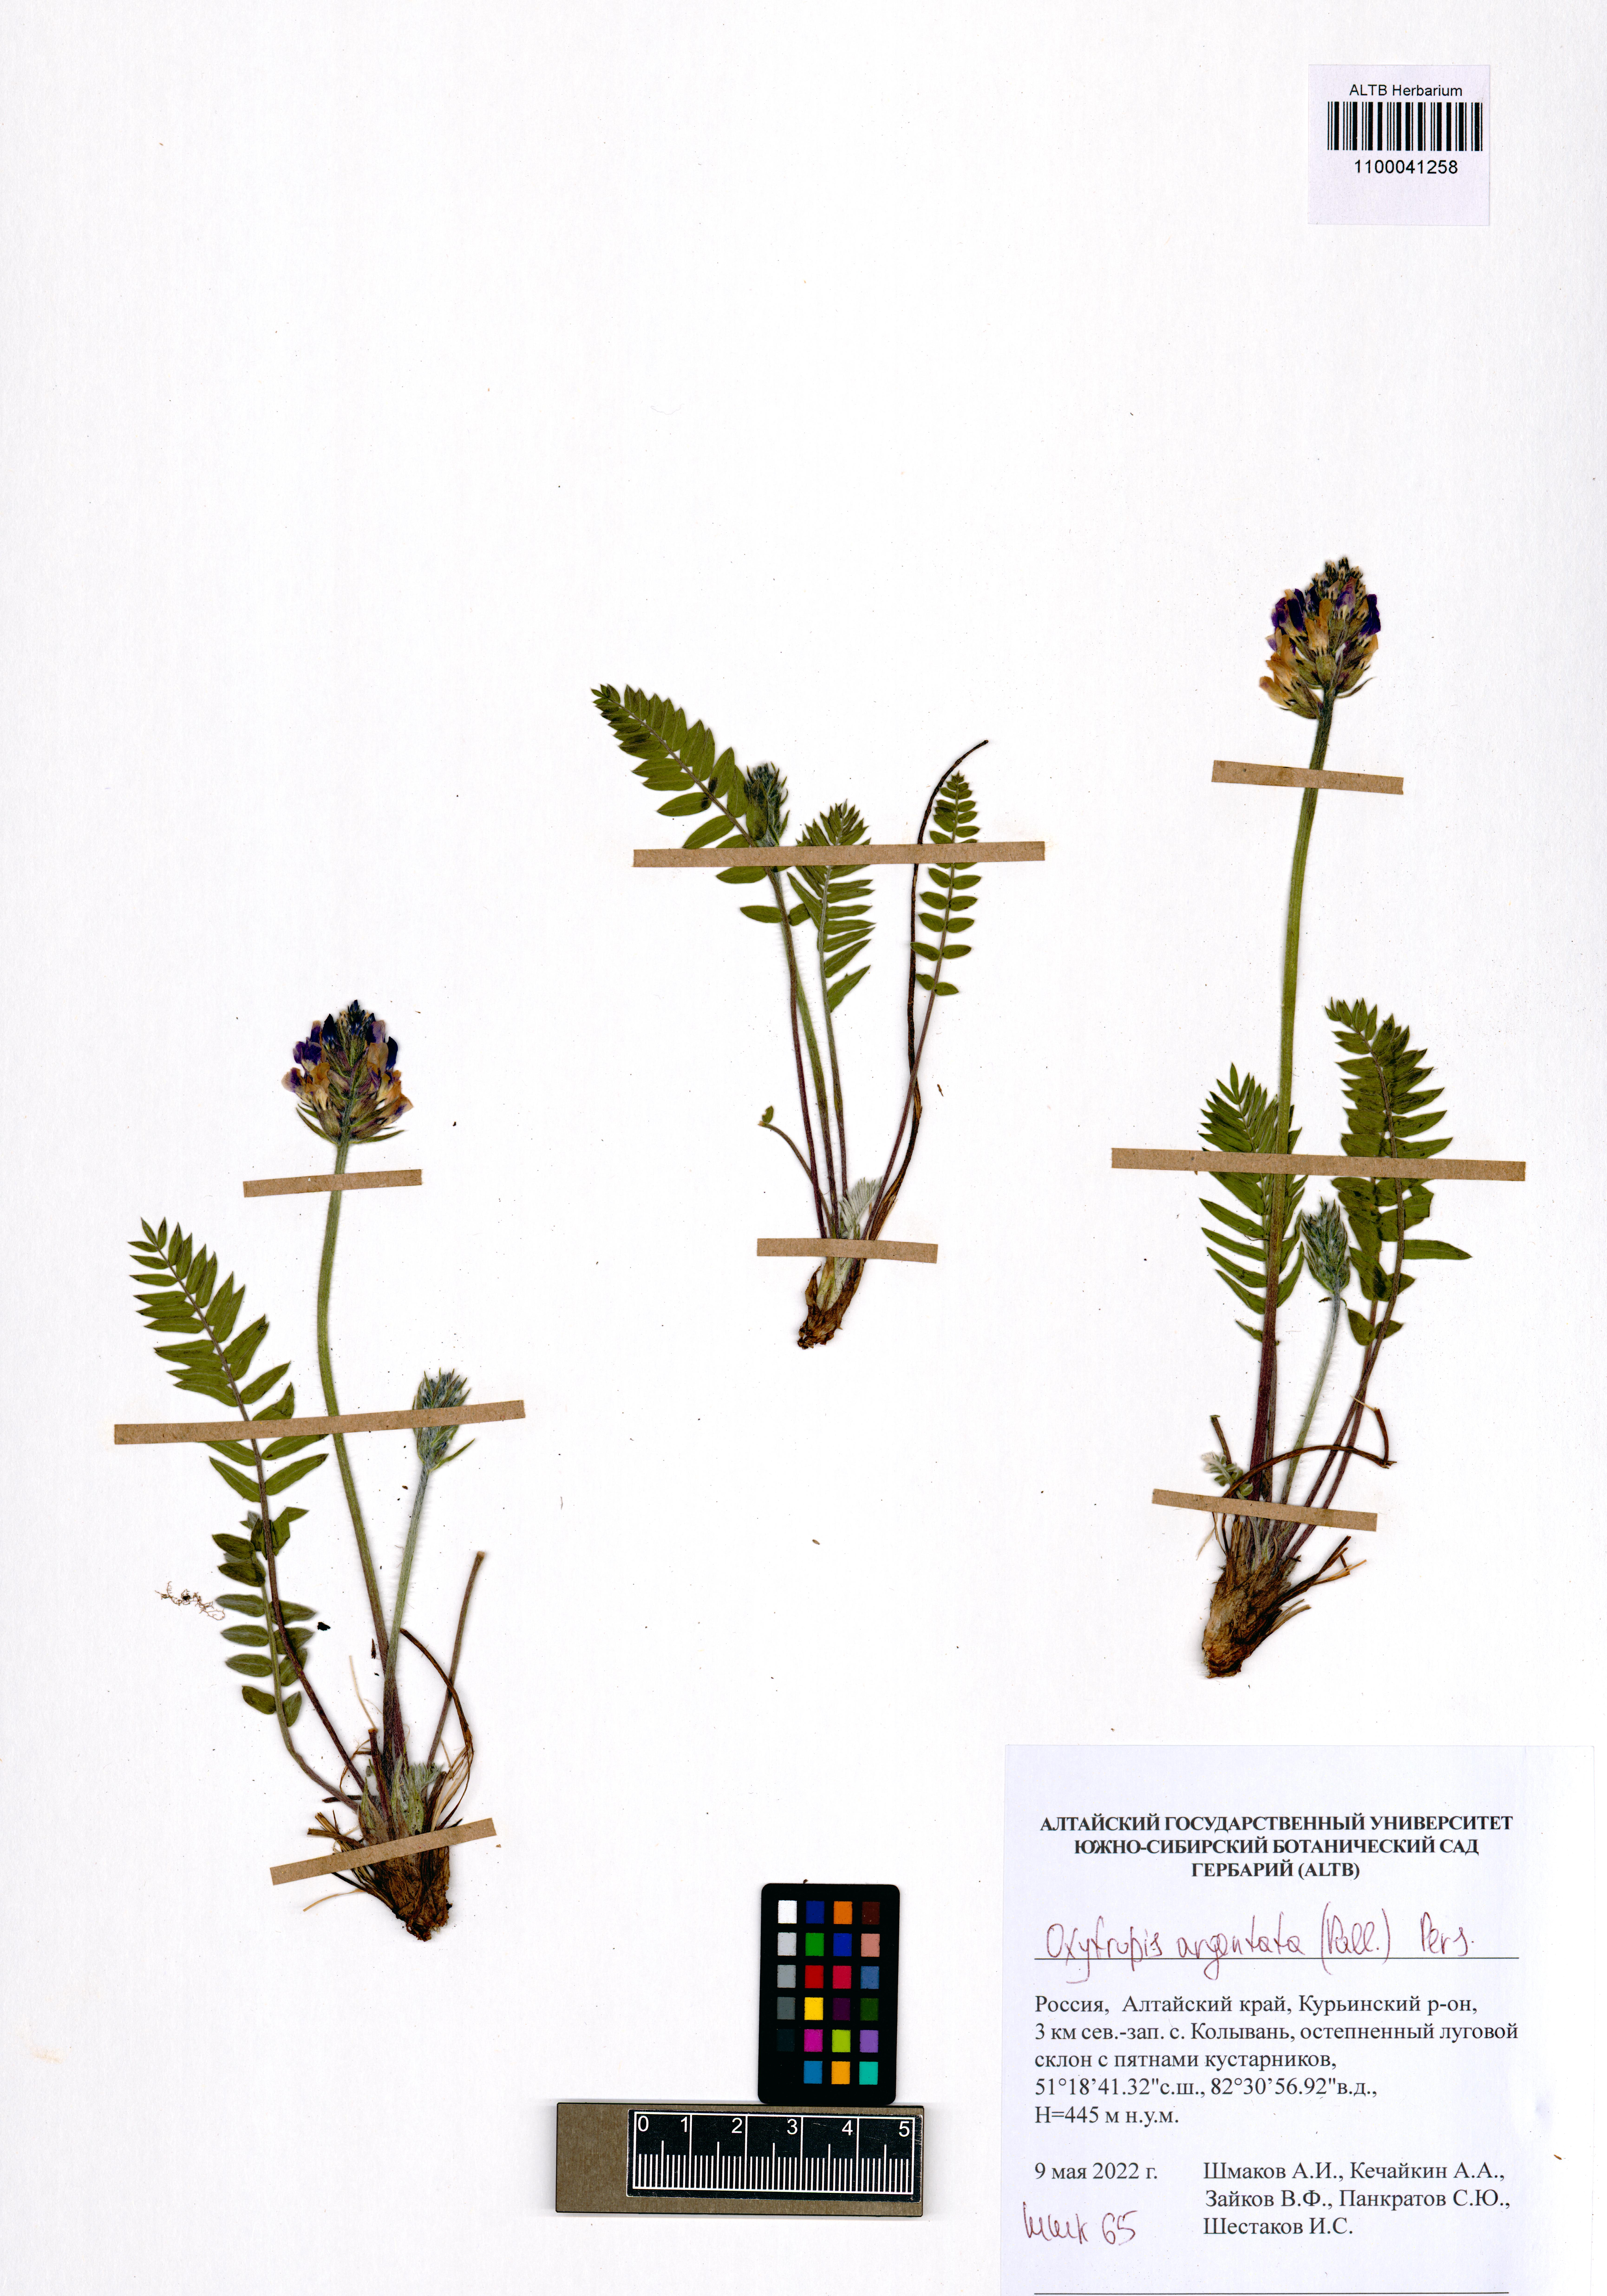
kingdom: Plantae
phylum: Tracheophyta
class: Magnoliopsida
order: Fabales
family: Fabaceae
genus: Oxytropis
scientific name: Oxytropis argentata
